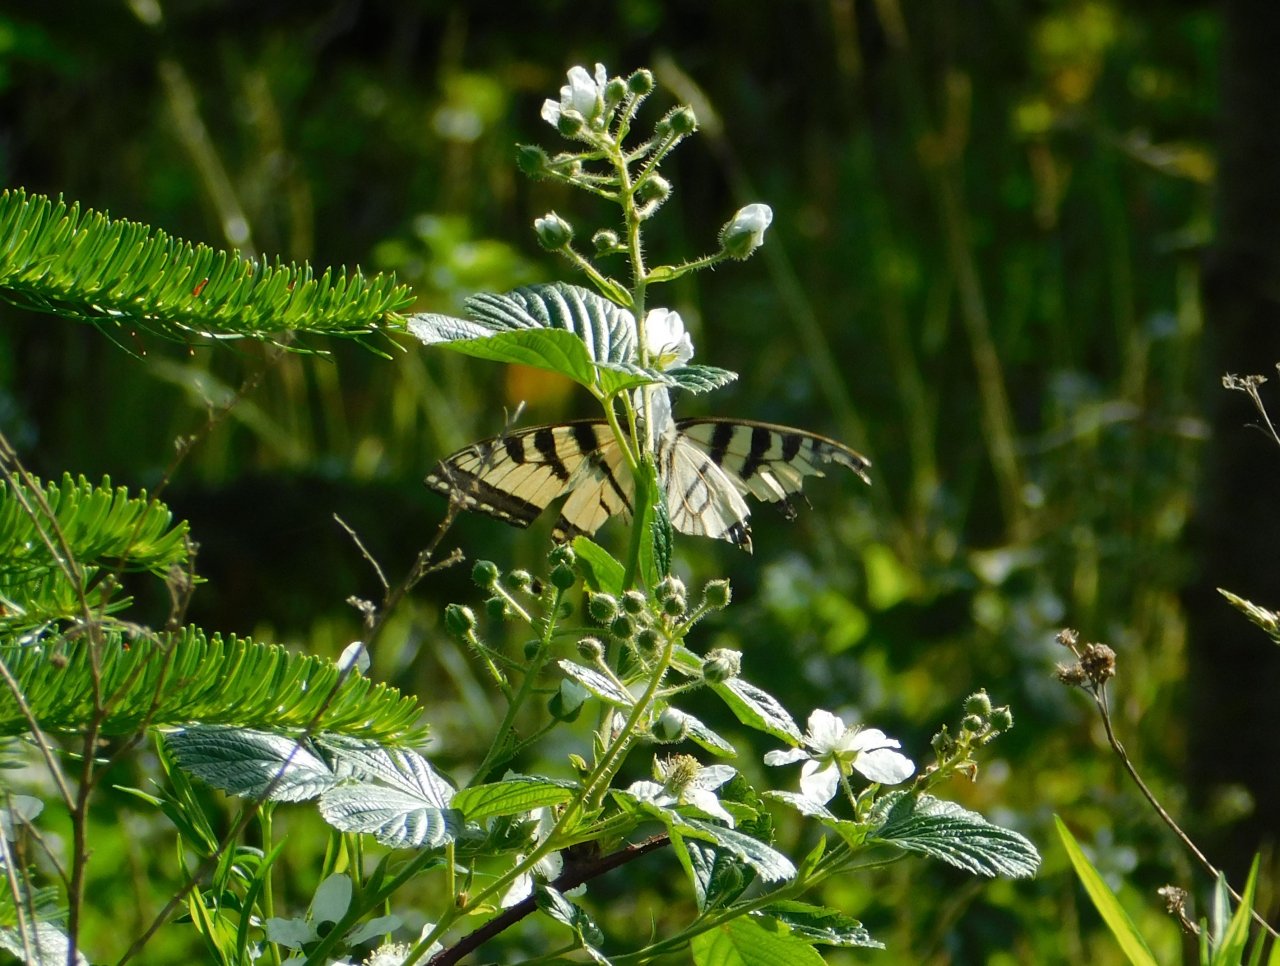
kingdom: Animalia
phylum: Arthropoda
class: Insecta
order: Lepidoptera
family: Papilionidae
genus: Pterourus
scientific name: Pterourus canadensis
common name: Canadian Tiger Swallowtail
